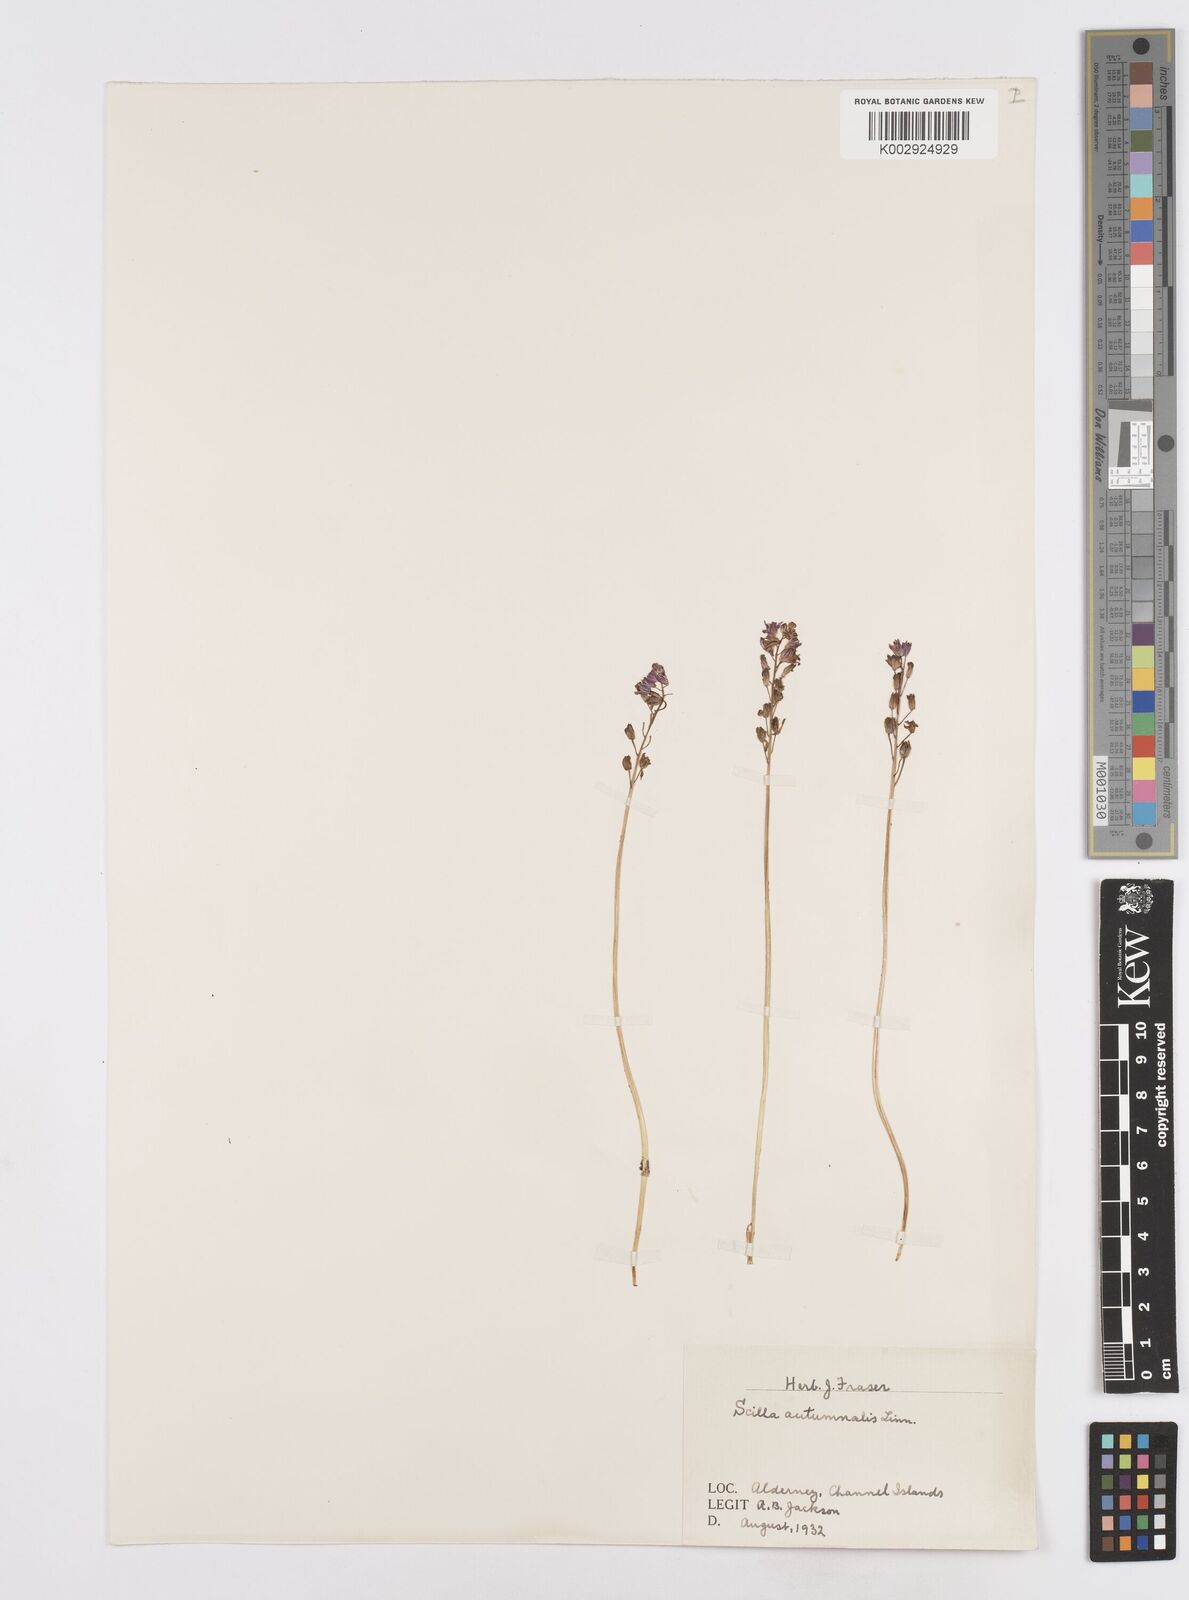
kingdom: Plantae
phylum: Tracheophyta
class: Liliopsida
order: Asparagales
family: Asparagaceae
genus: Prospero
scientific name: Prospero autumnale
